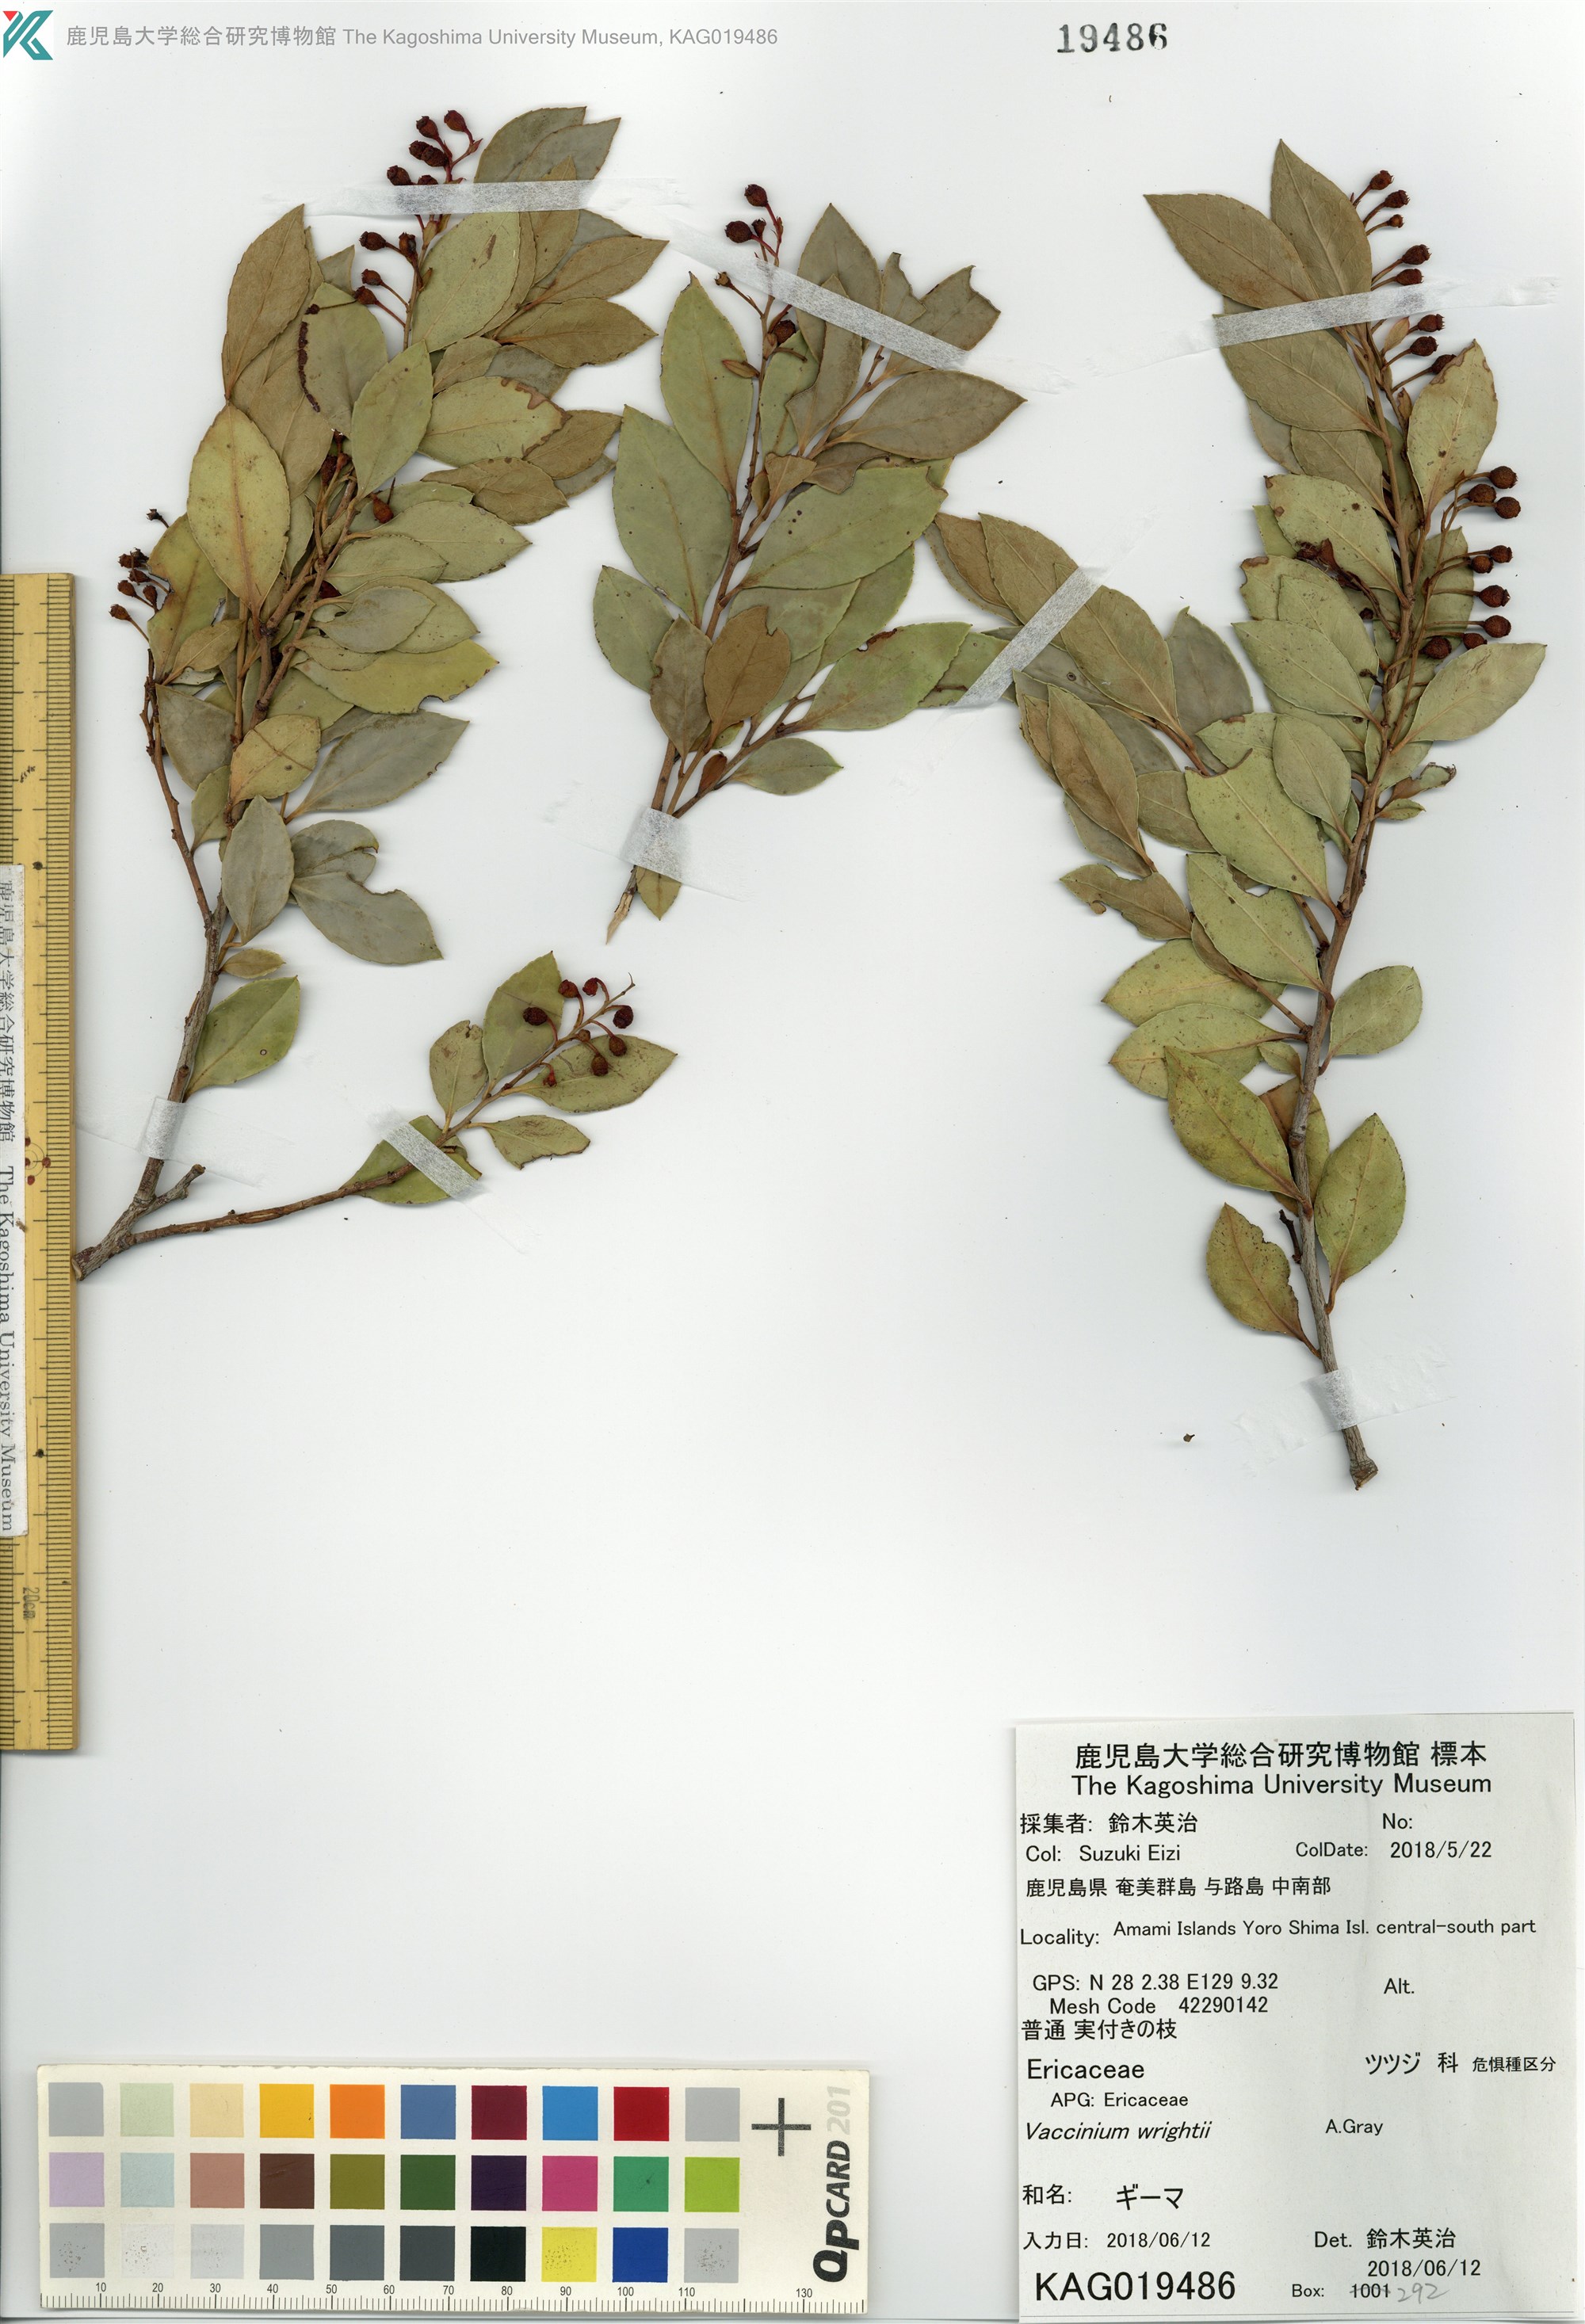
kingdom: Plantae
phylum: Tracheophyta
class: Magnoliopsida
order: Ericales
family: Ericaceae
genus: Vaccinium
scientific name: Vaccinium wrightii
